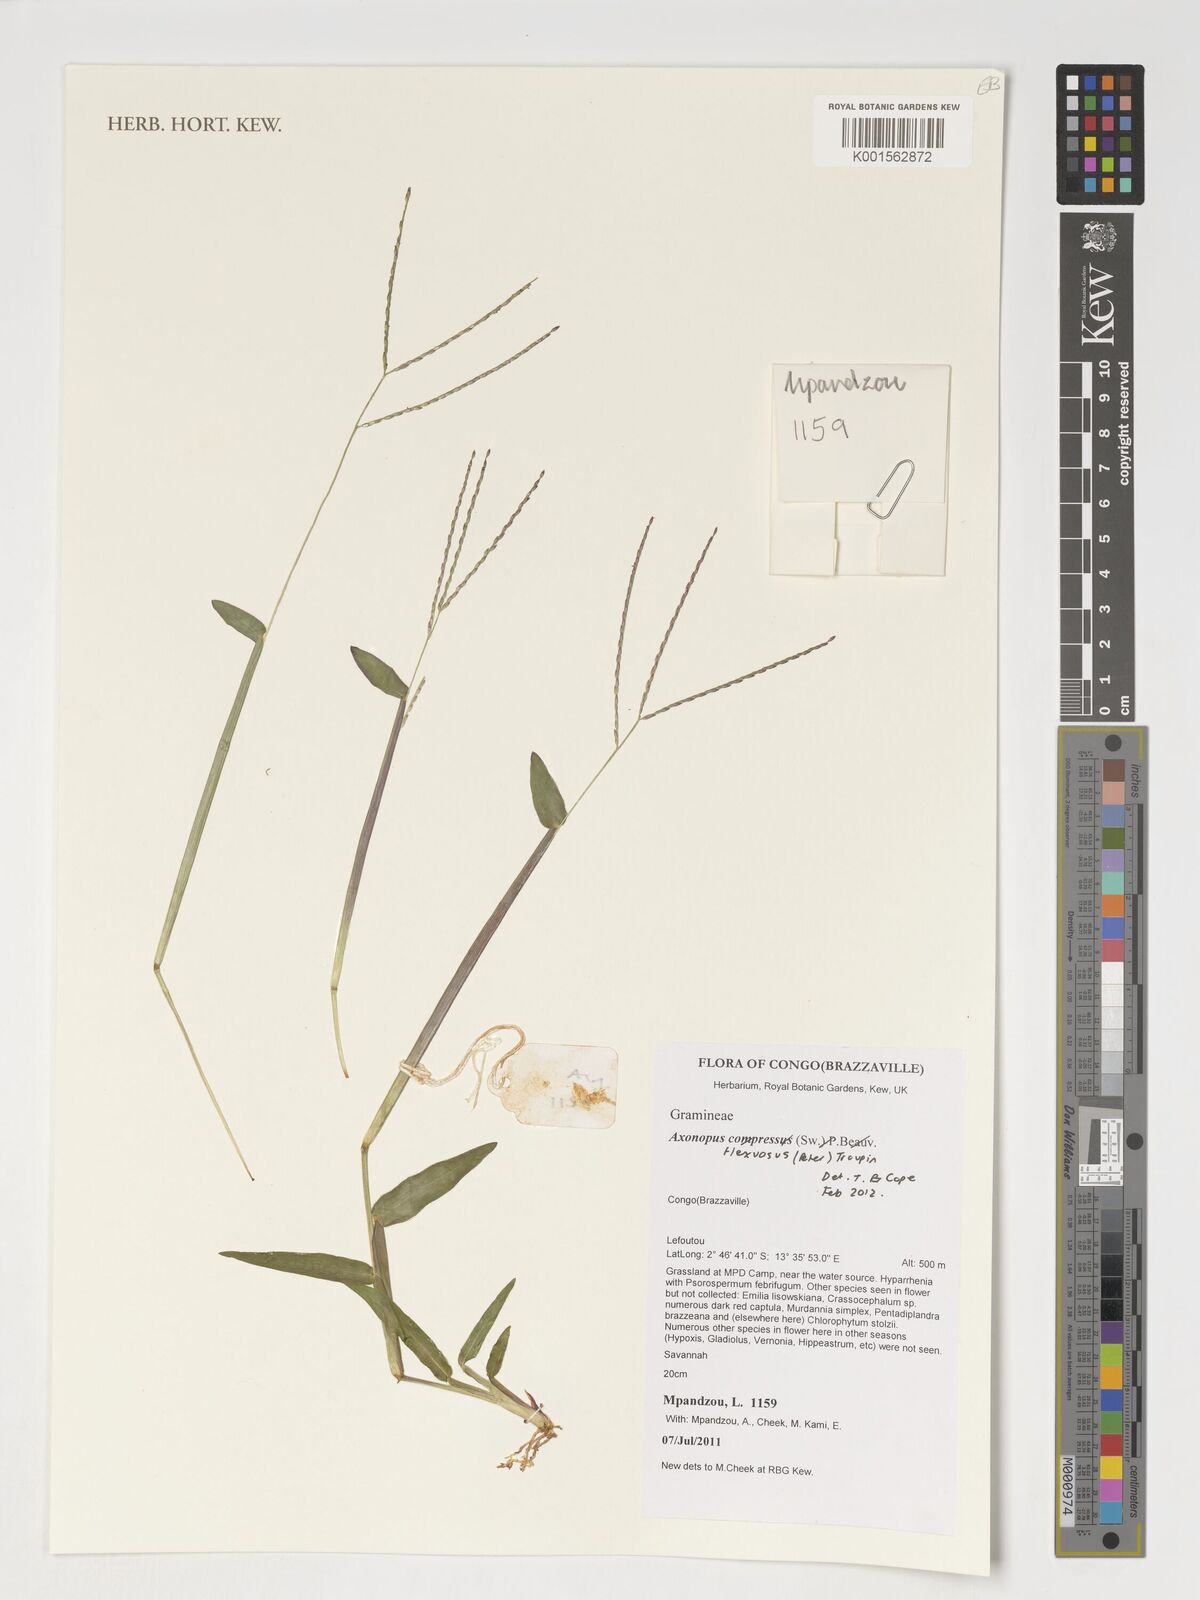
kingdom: Plantae
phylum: Tracheophyta
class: Liliopsida
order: Poales
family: Poaceae
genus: Axonopus
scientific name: Axonopus flexuosus
